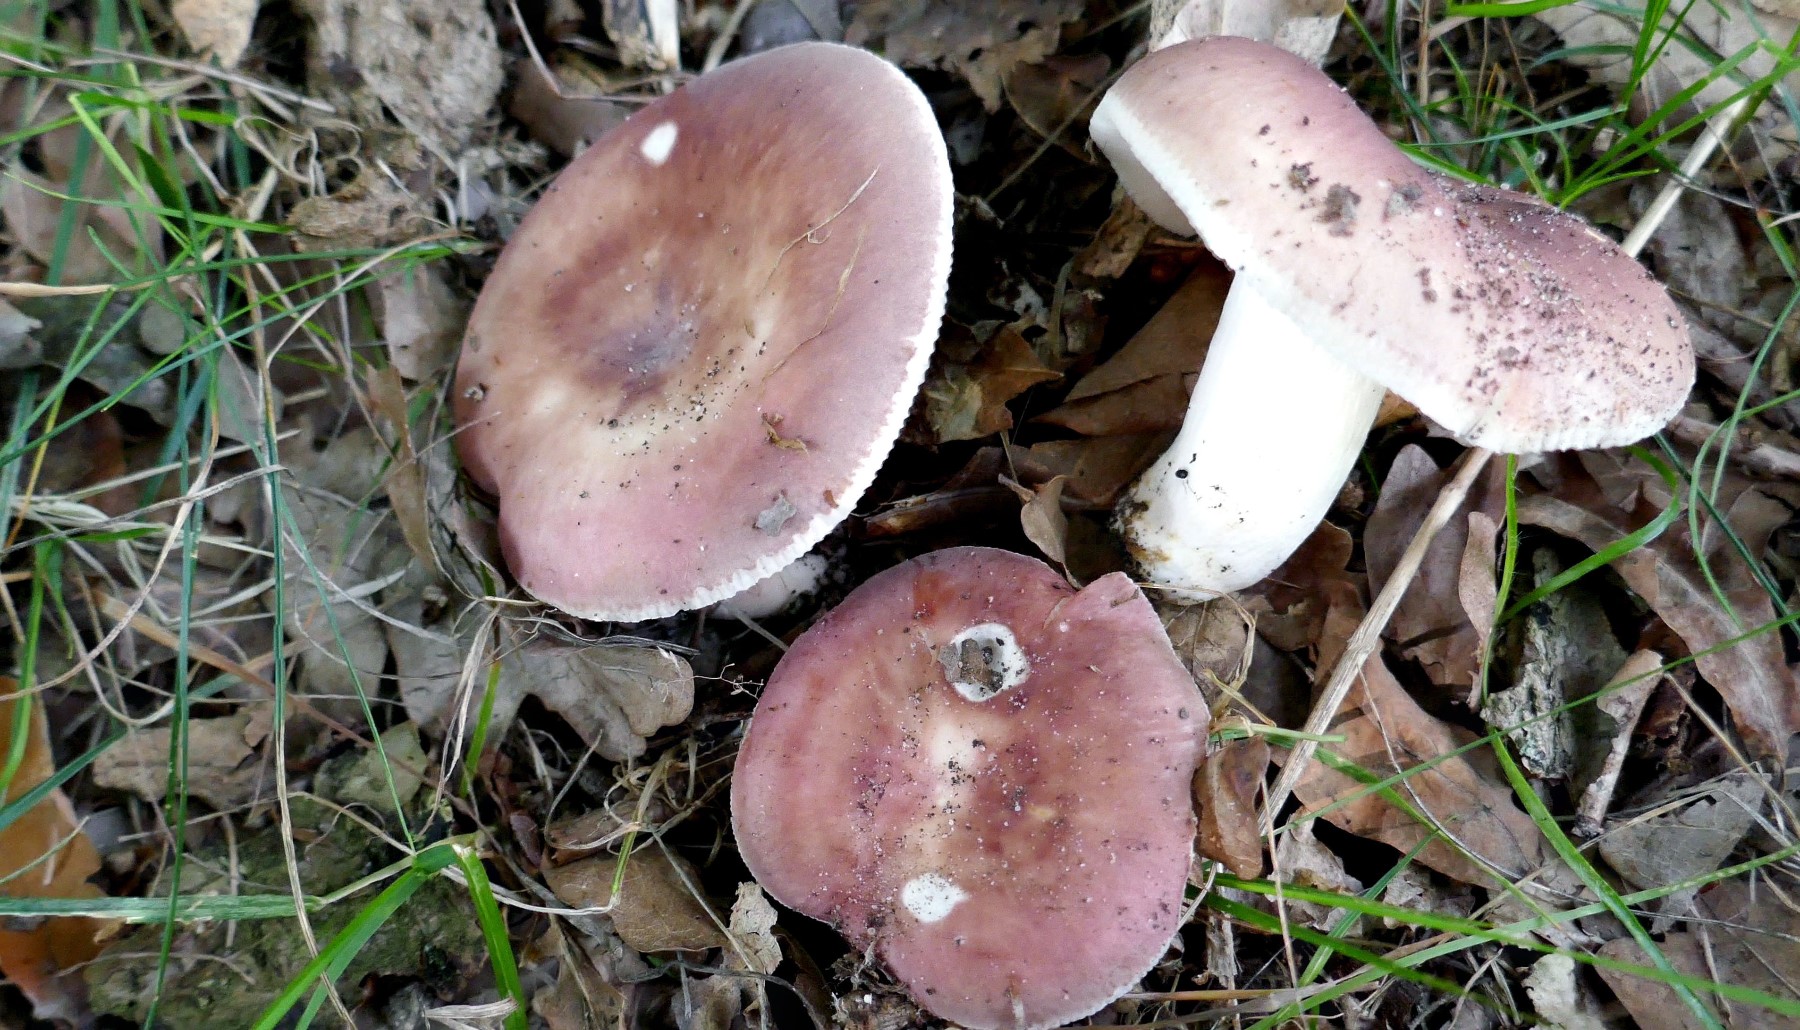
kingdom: Fungi
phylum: Basidiomycota
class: Agaricomycetes
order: Russulales
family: Russulaceae
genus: Russula
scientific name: Russula vesca
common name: spiselig skørhat
